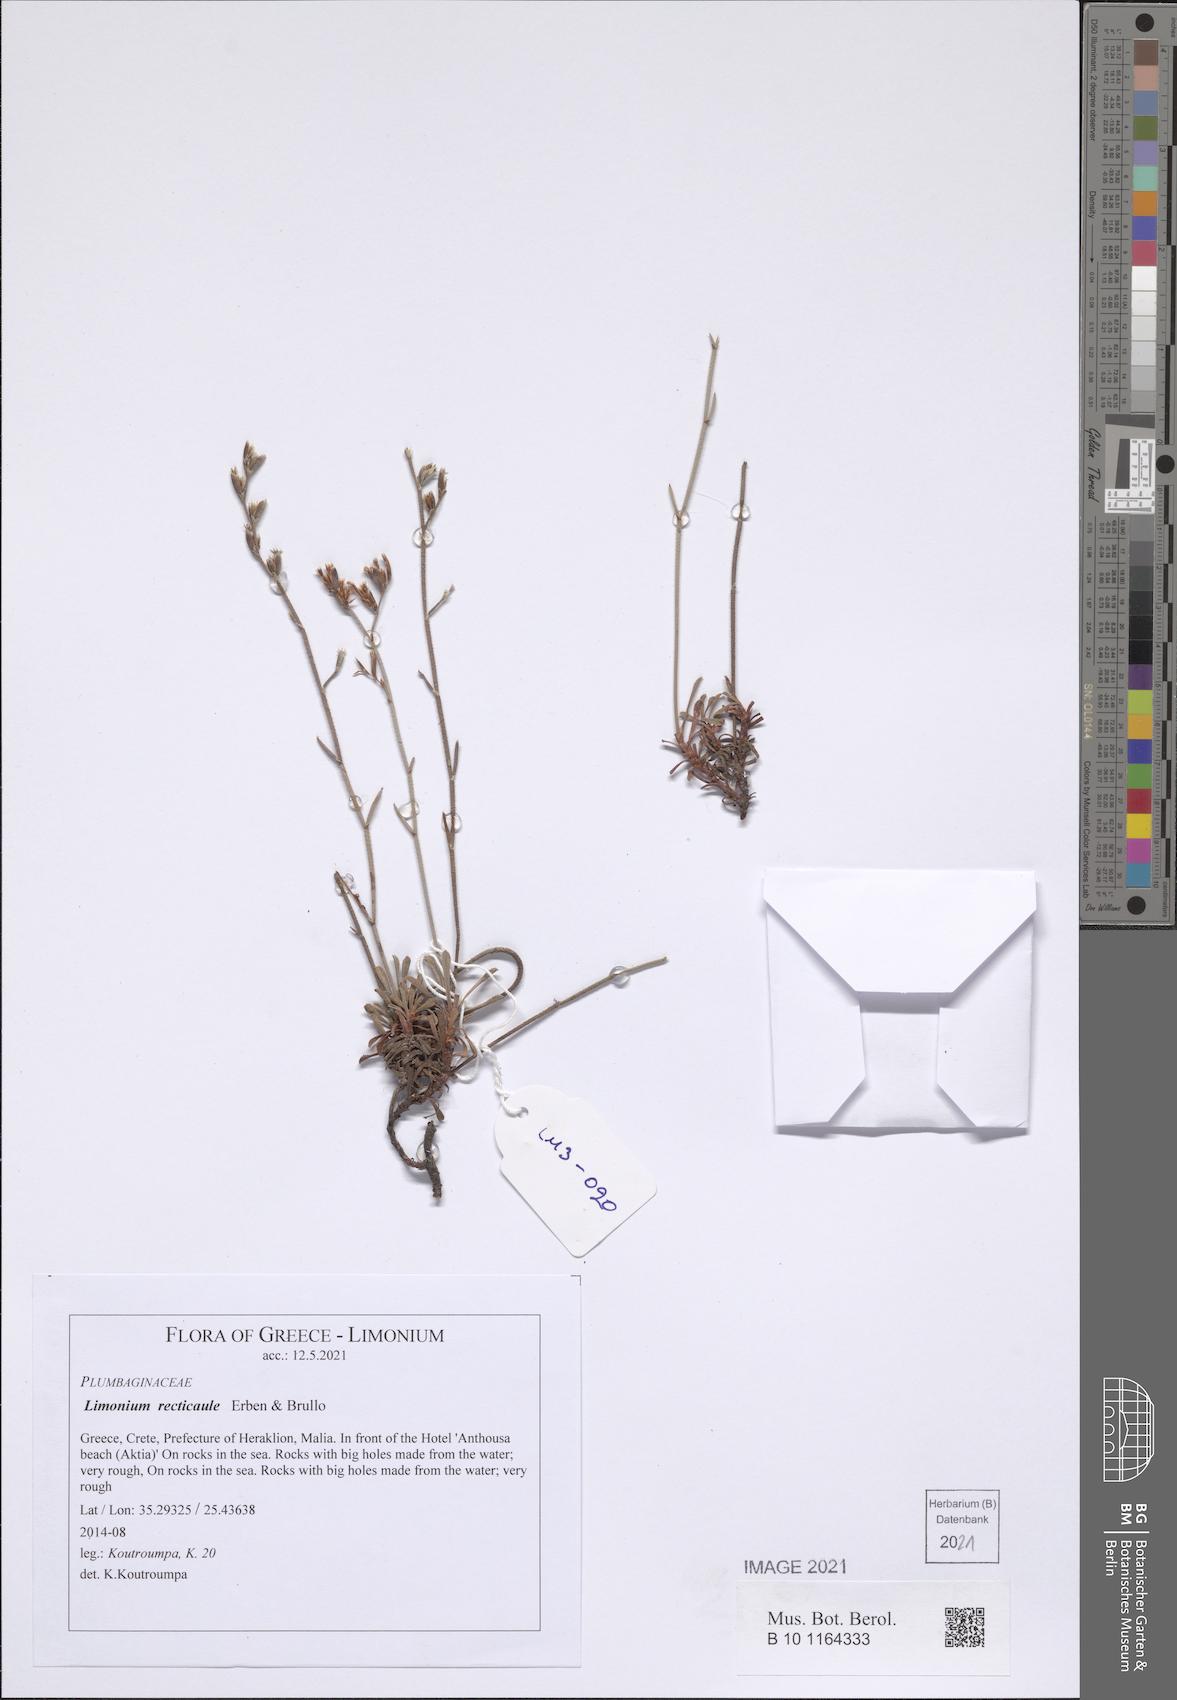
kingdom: Plantae
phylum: Tracheophyta
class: Magnoliopsida
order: Caryophyllales
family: Plumbaginaceae
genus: Limonium
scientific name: Limonium recticaule
